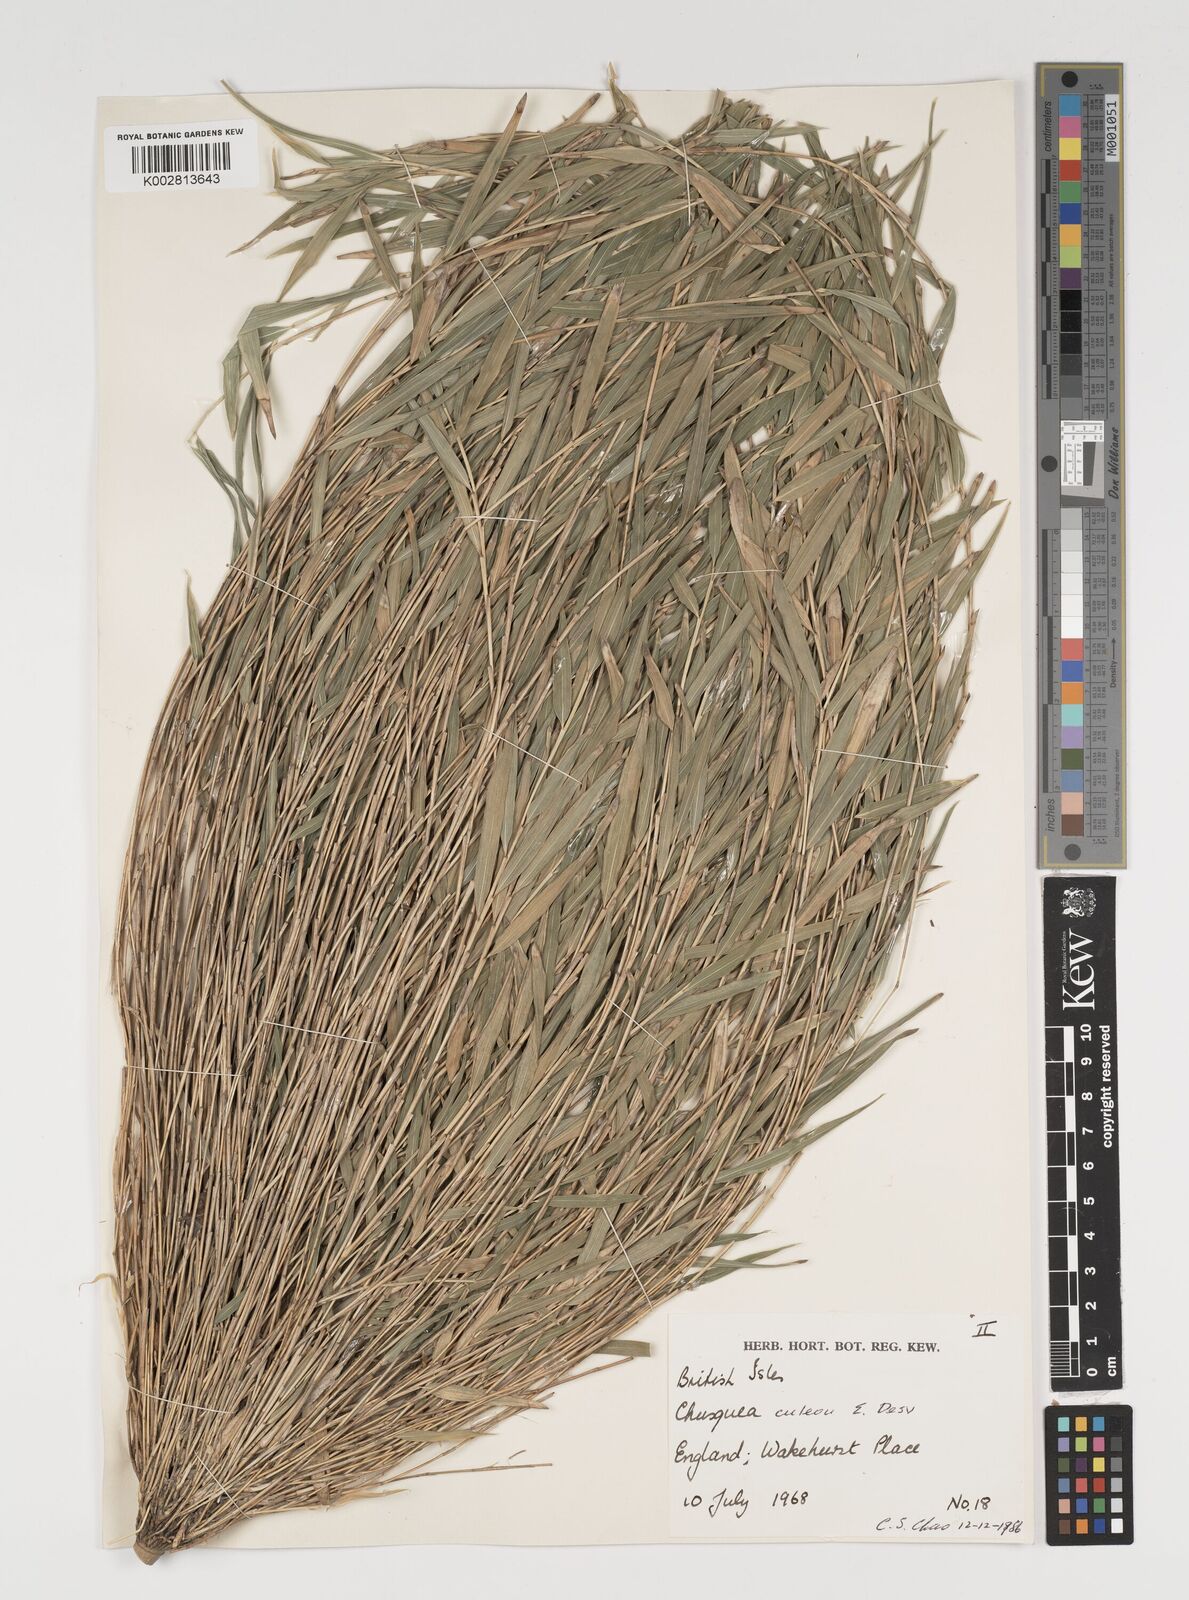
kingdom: Plantae
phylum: Tracheophyta
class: Liliopsida
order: Poales
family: Poaceae
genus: Chusquea
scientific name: Chusquea andina
